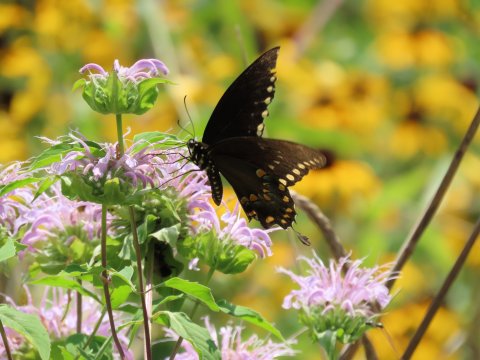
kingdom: Animalia
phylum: Arthropoda
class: Insecta
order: Lepidoptera
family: Papilionidae
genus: Pterourus
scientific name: Pterourus troilus
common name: Spicebush Swallowtail
